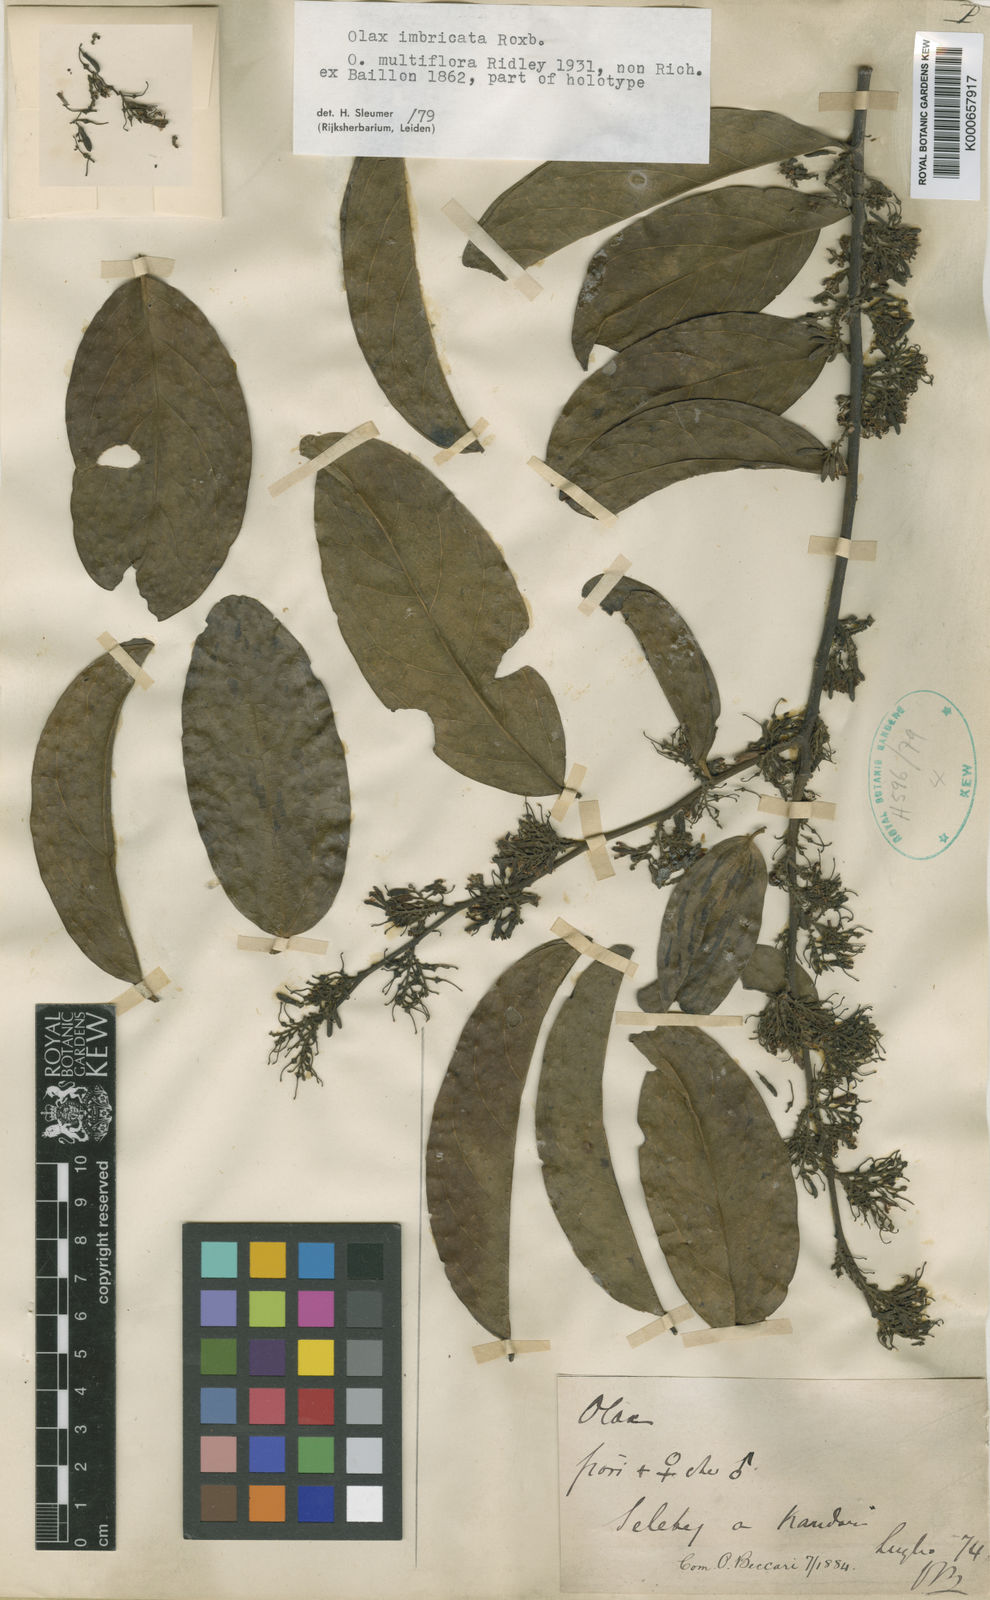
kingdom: Plantae
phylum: Tracheophyta
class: Magnoliopsida
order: Santalales
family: Olacaceae
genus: Olax
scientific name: Olax imbricata
